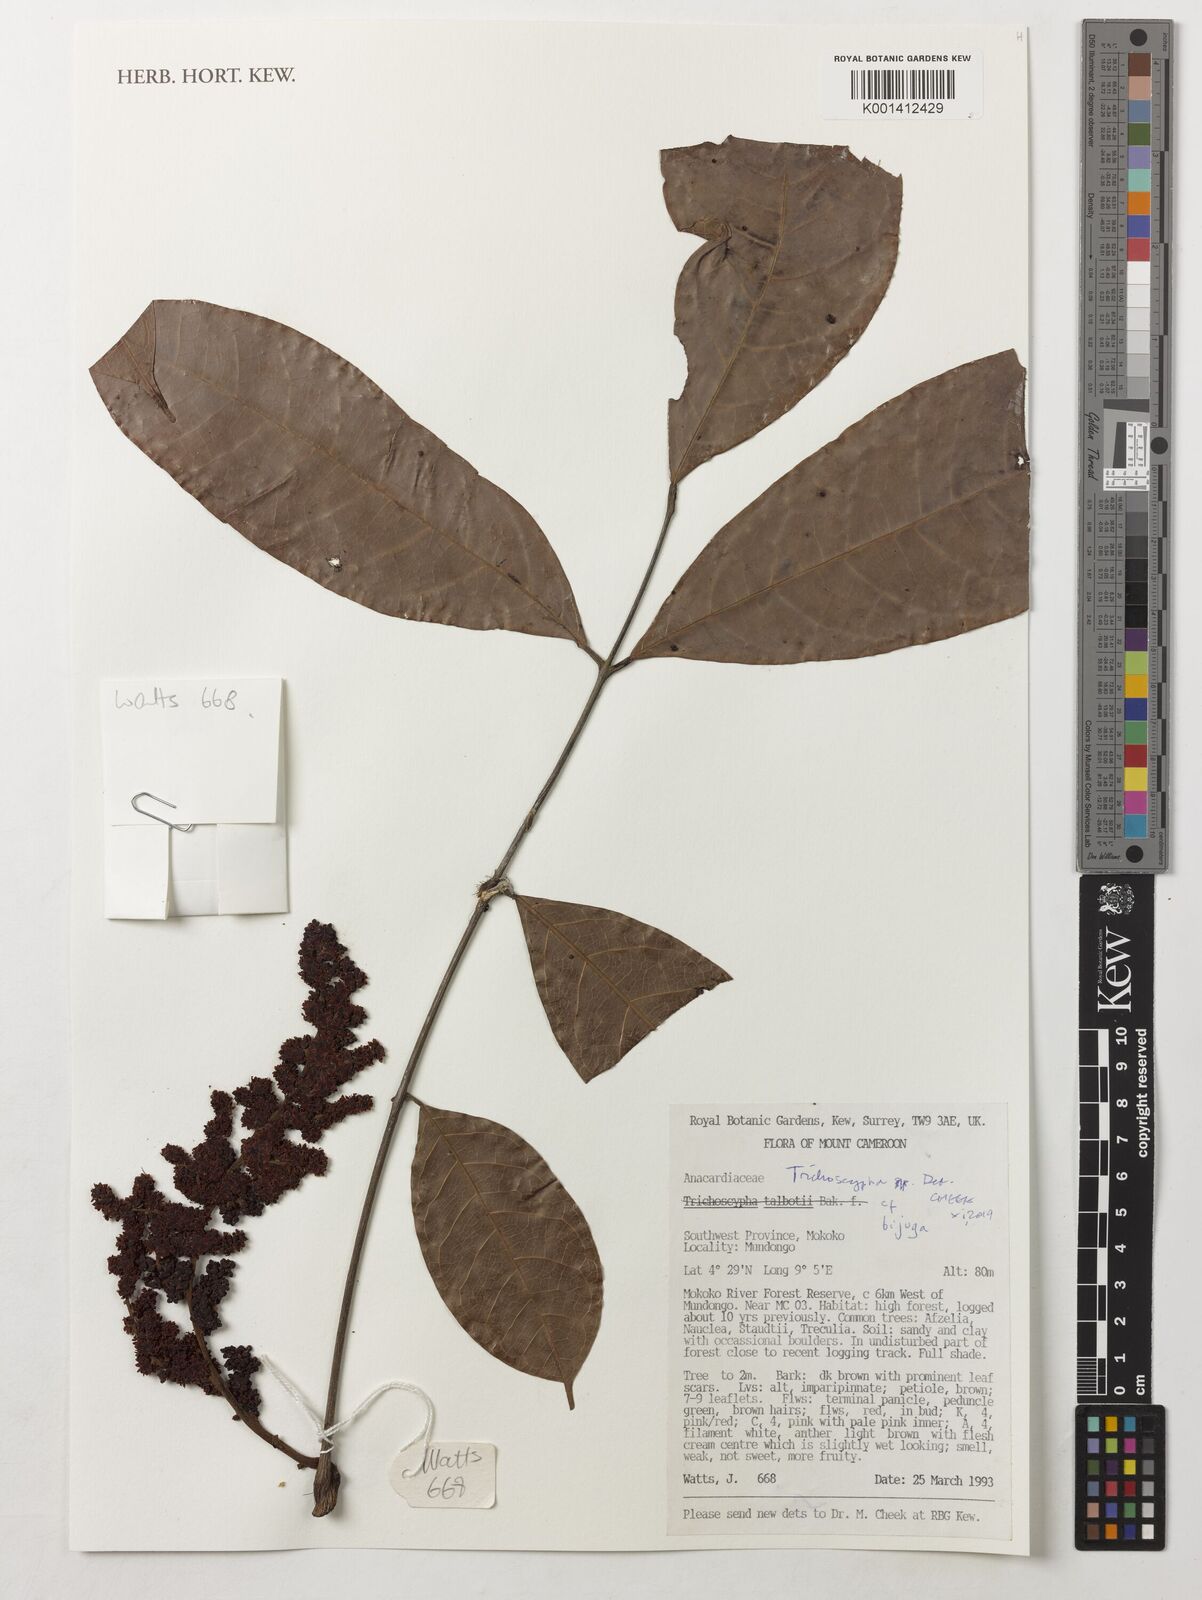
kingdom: Plantae
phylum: Tracheophyta
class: Magnoliopsida
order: Sapindales
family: Anacardiaceae
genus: Trichoscypha
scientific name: Trichoscypha bijuga
